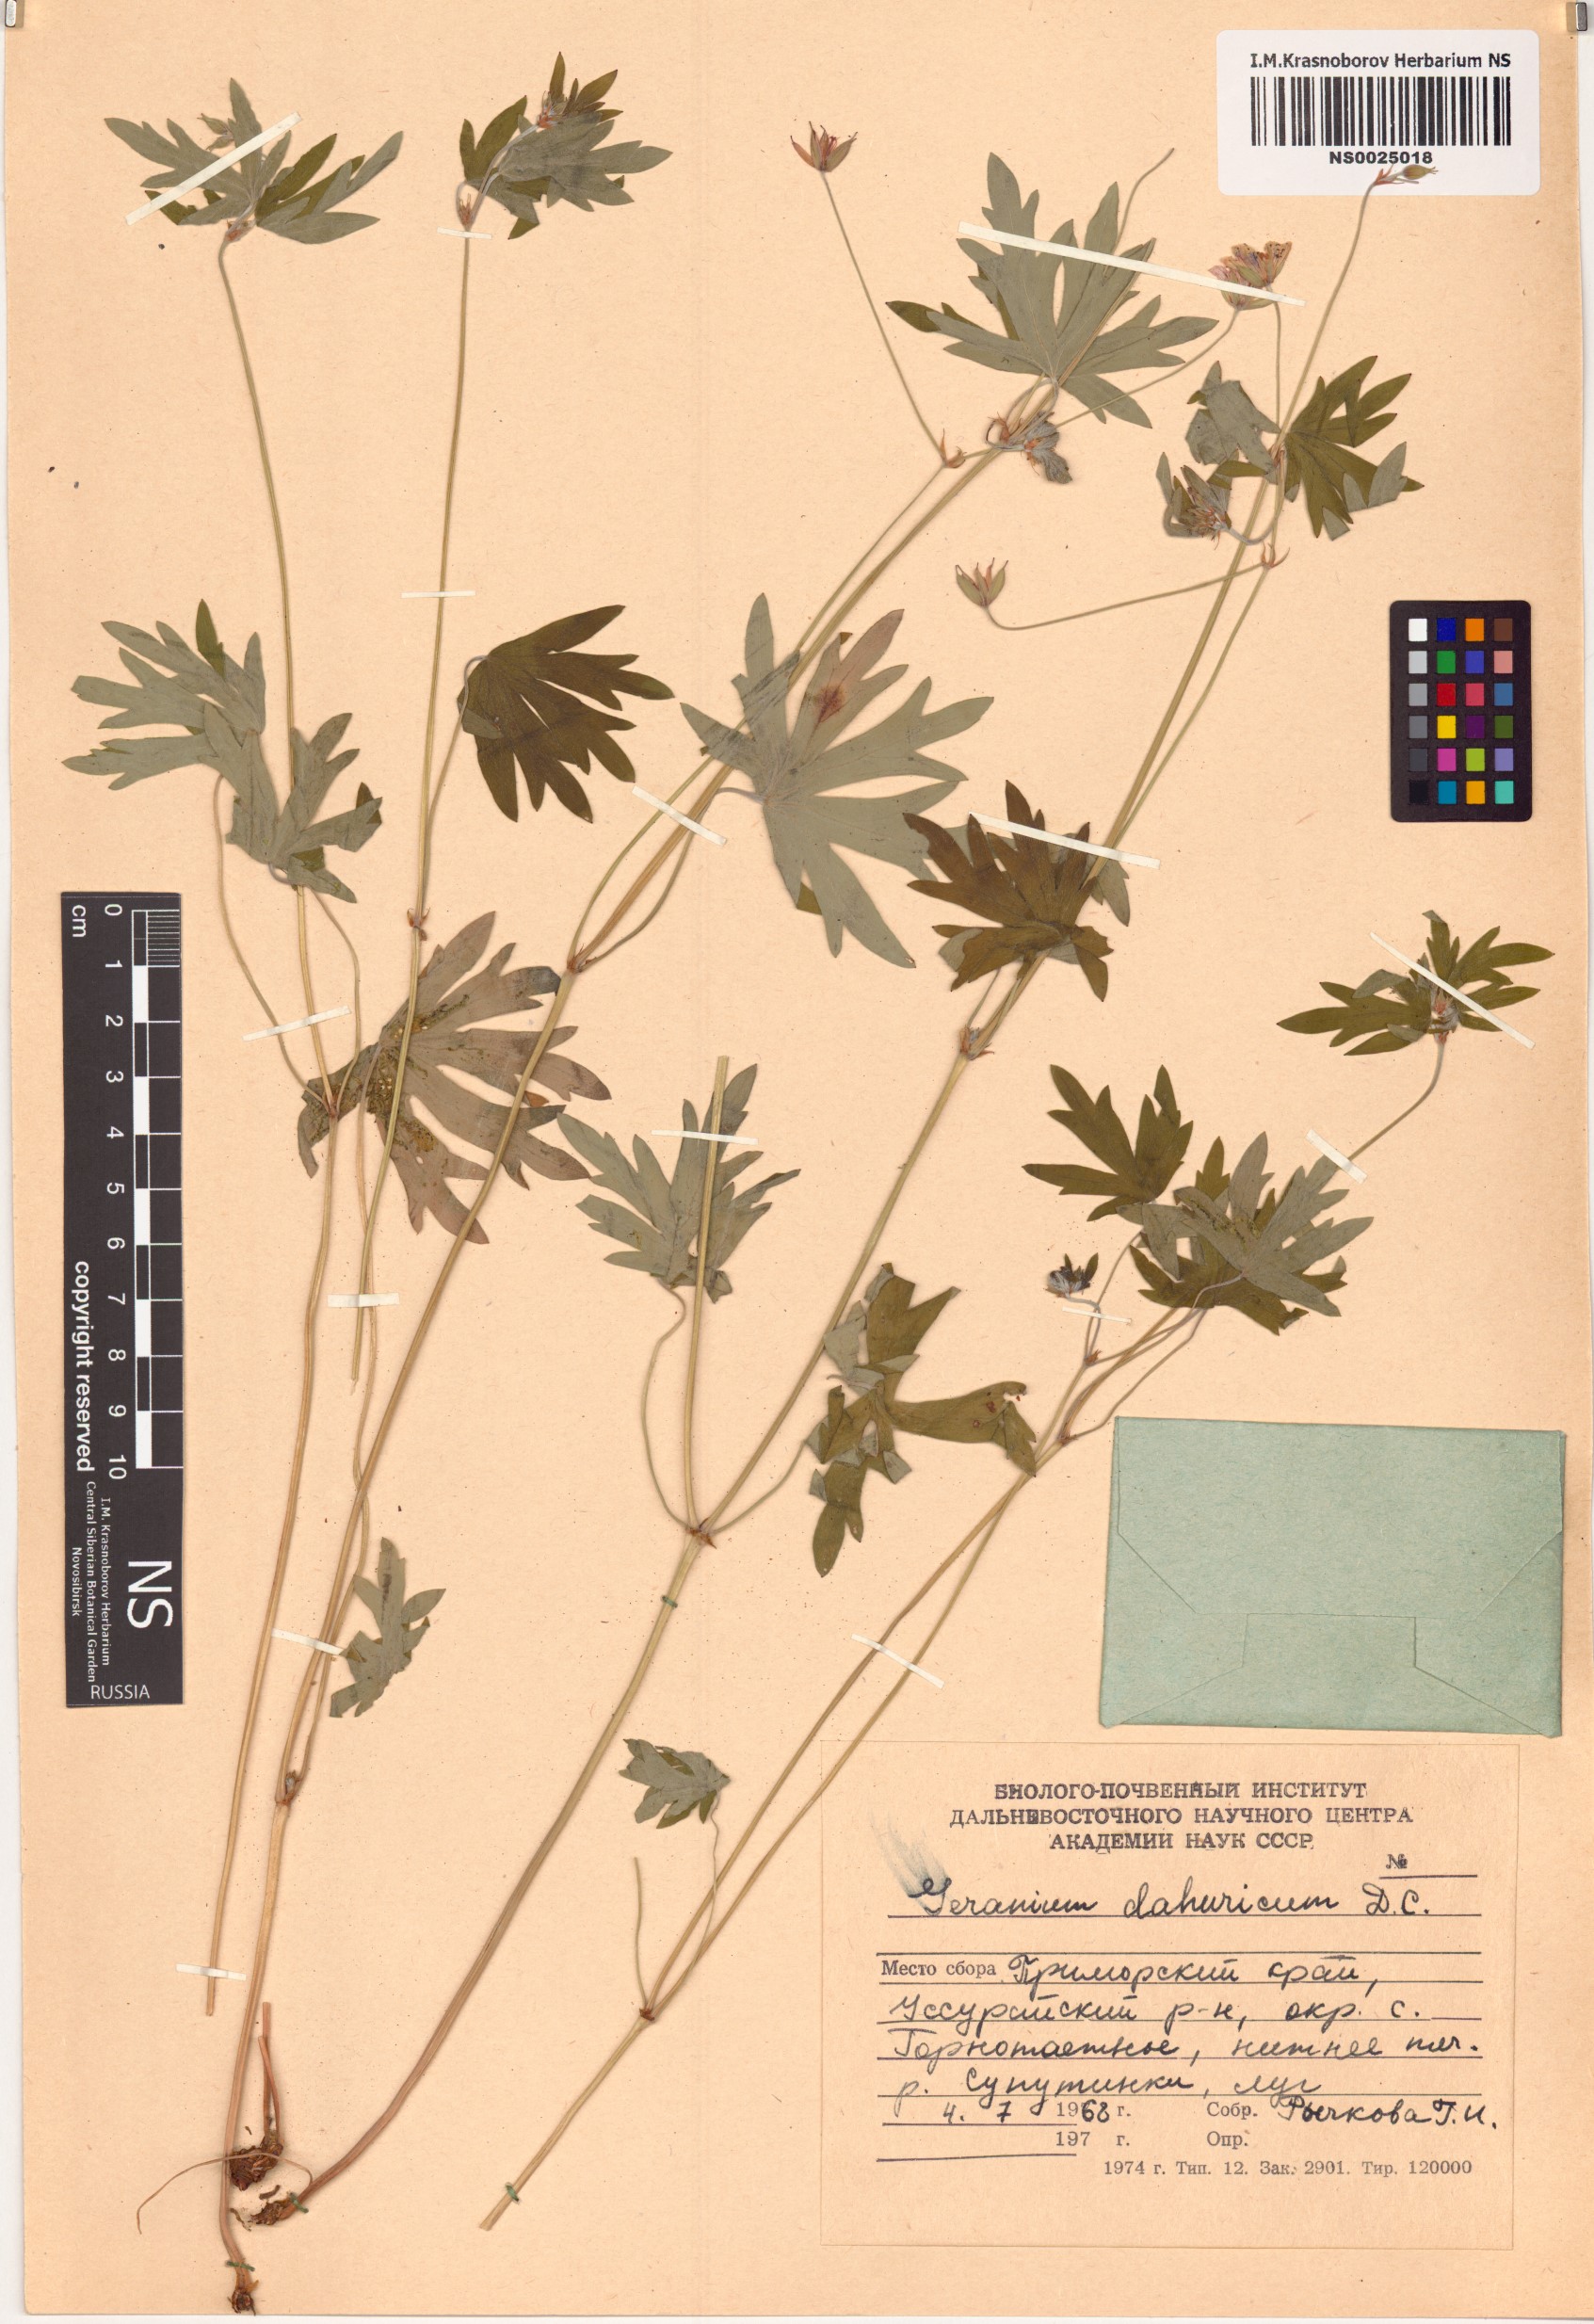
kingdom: Plantae
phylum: Tracheophyta
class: Magnoliopsida
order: Geraniales
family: Geraniaceae
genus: Geranium
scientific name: Geranium dahuricum
